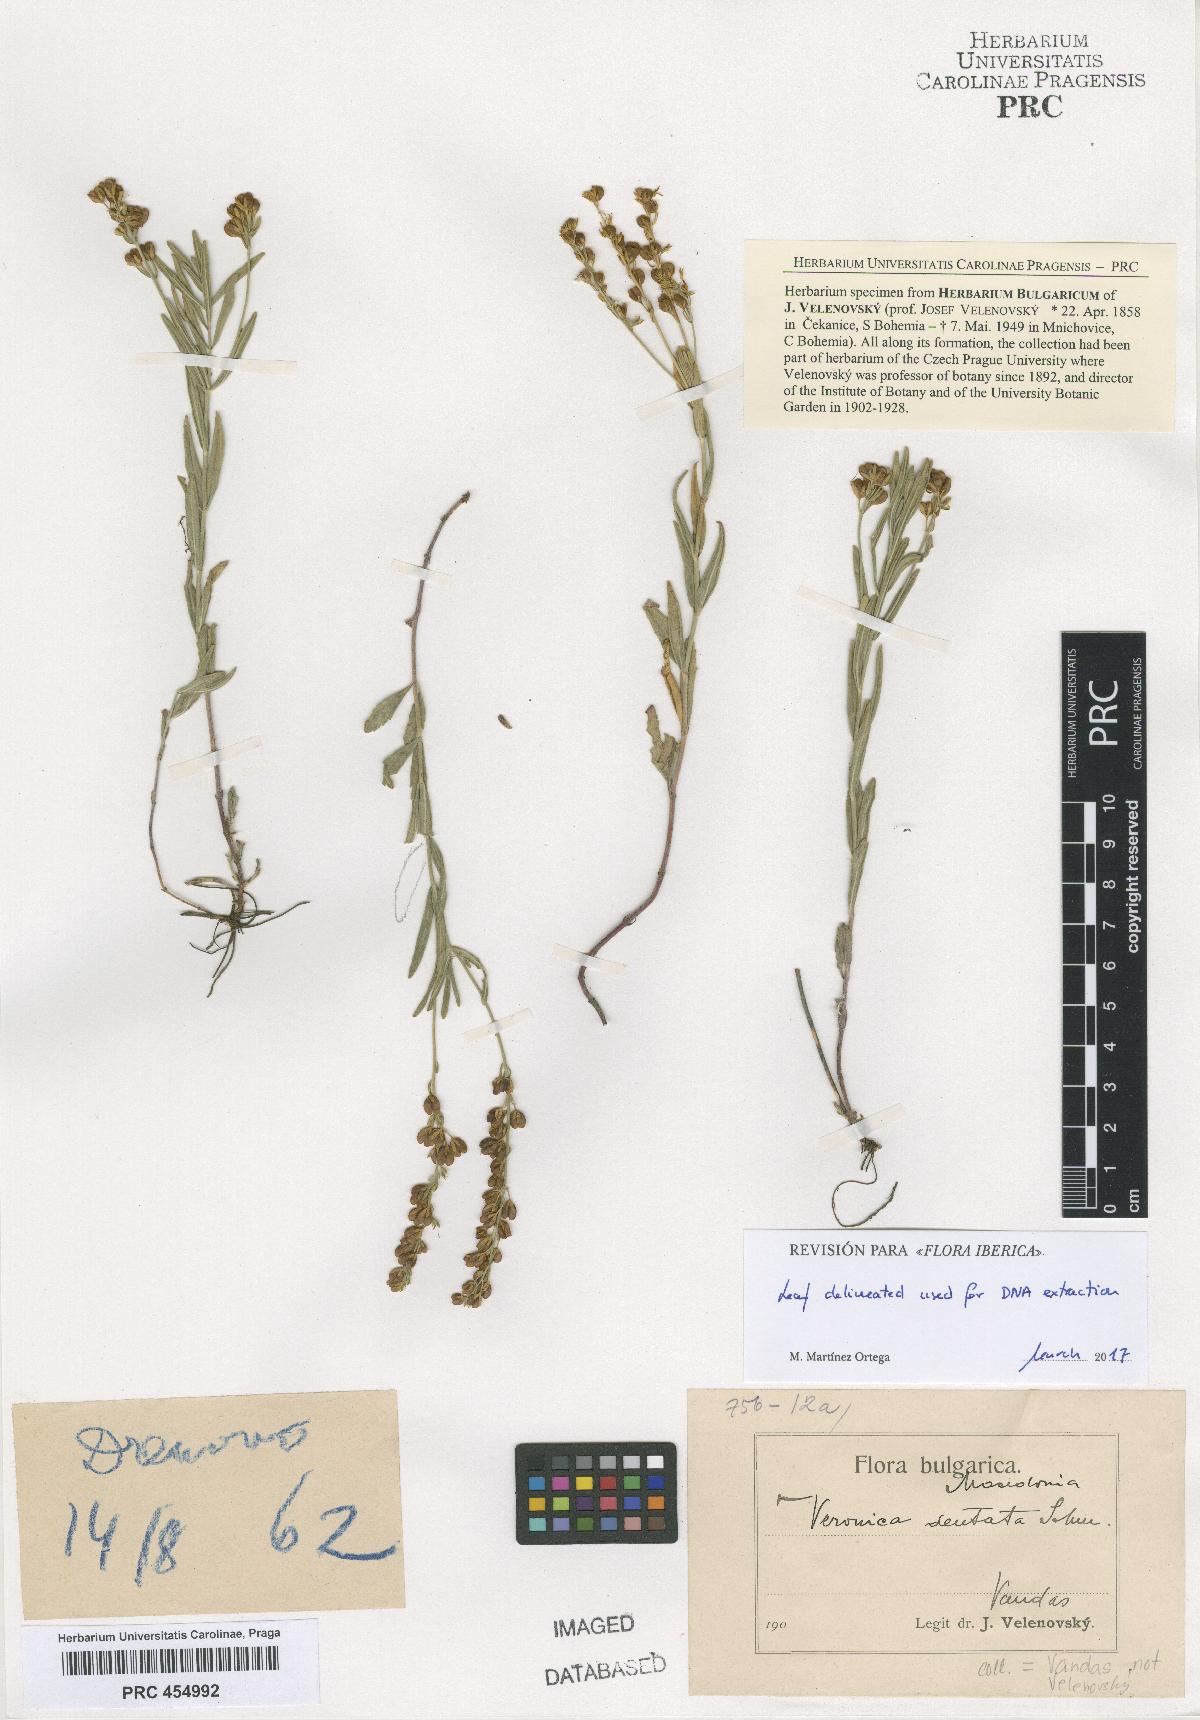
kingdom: Plantae
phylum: Tracheophyta
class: Magnoliopsida
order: Lamiales
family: Plantaginaceae
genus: Veronica
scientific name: Veronica austriaca
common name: Large speedwell
